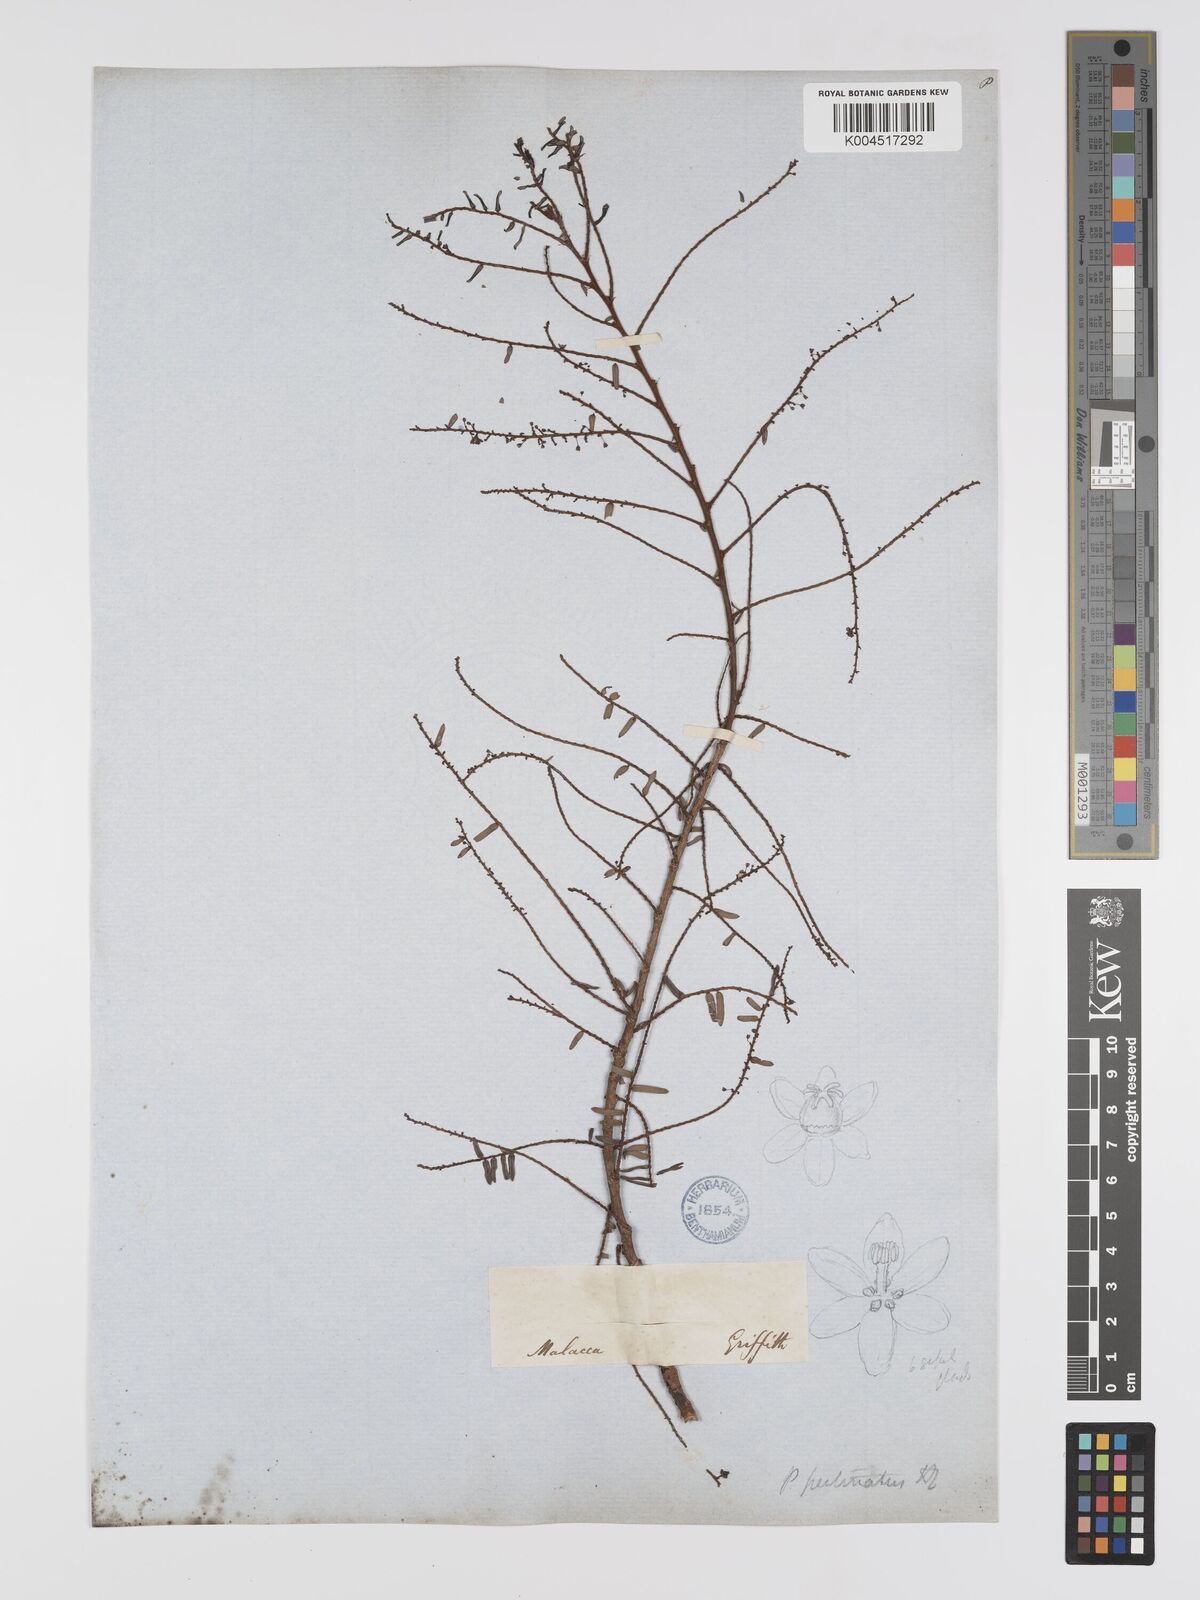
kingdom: Plantae
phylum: Tracheophyta
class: Magnoliopsida
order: Malpighiales
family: Phyllanthaceae
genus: Phyllanthus
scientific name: Phyllanthus emblica
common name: Indian gooseberry
